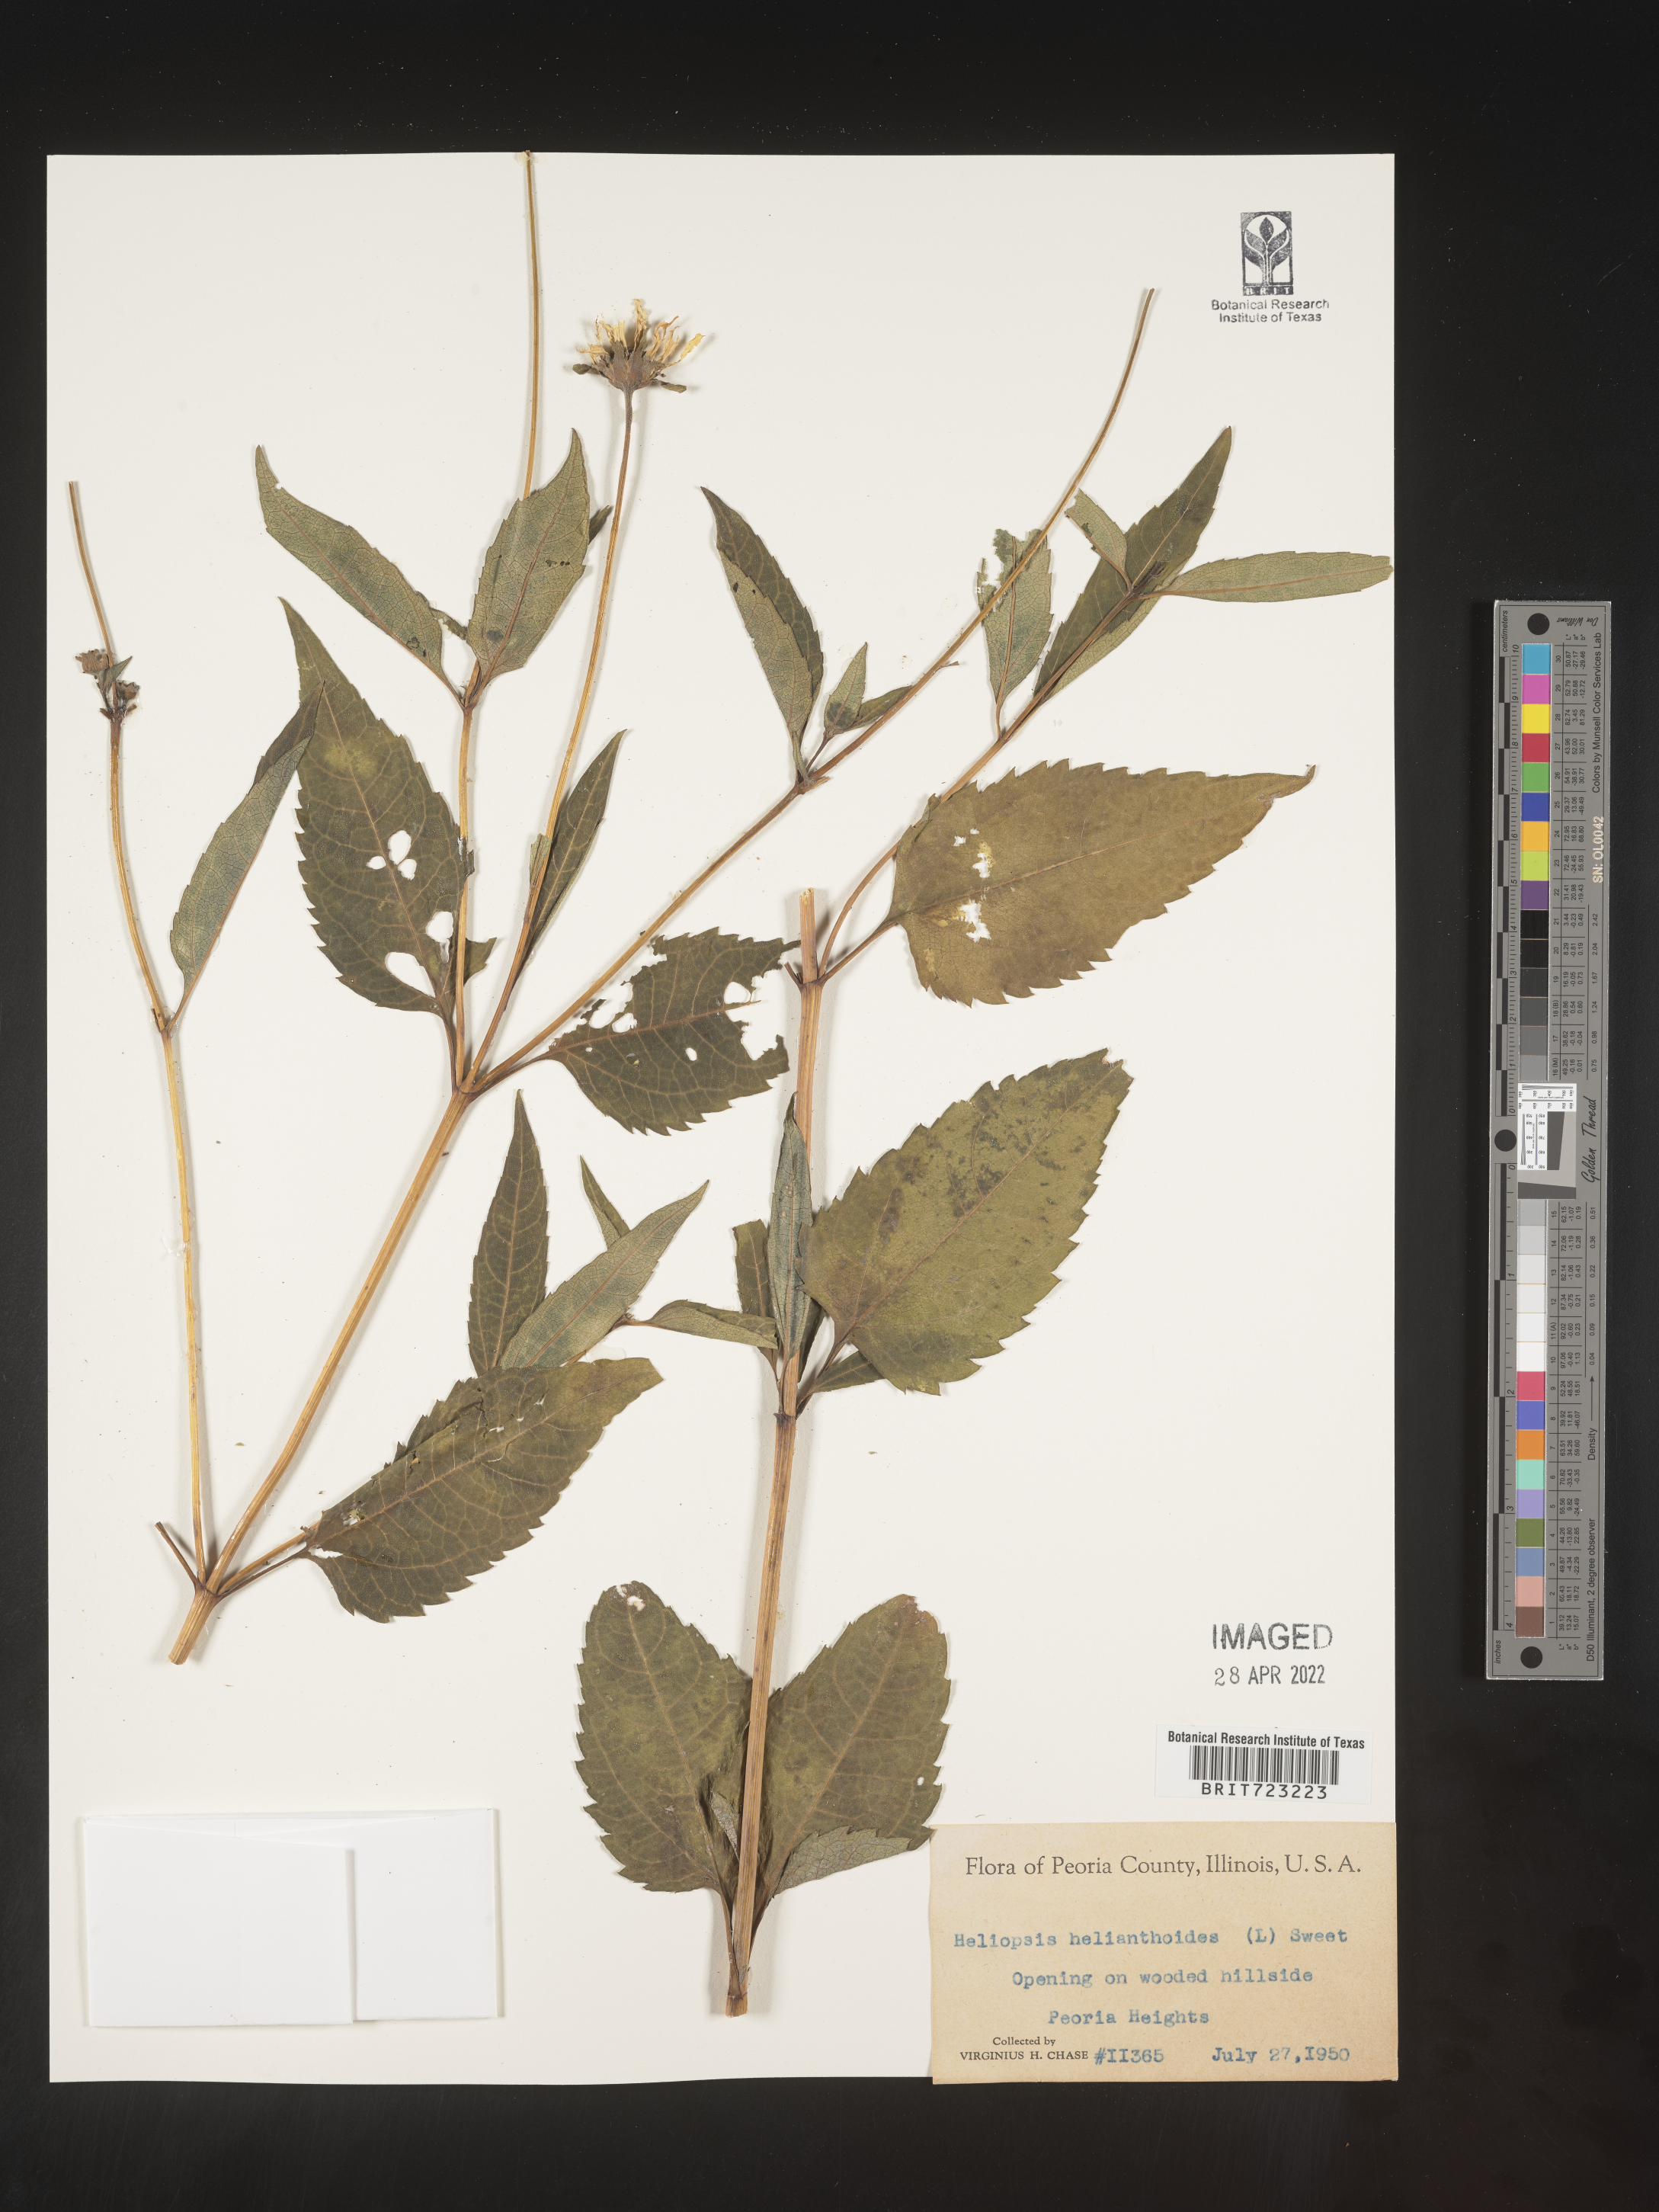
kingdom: Plantae
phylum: Tracheophyta
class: Magnoliopsida
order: Asterales
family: Asteraceae
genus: Heliopsis
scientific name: Heliopsis helianthoides
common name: False sunflower
